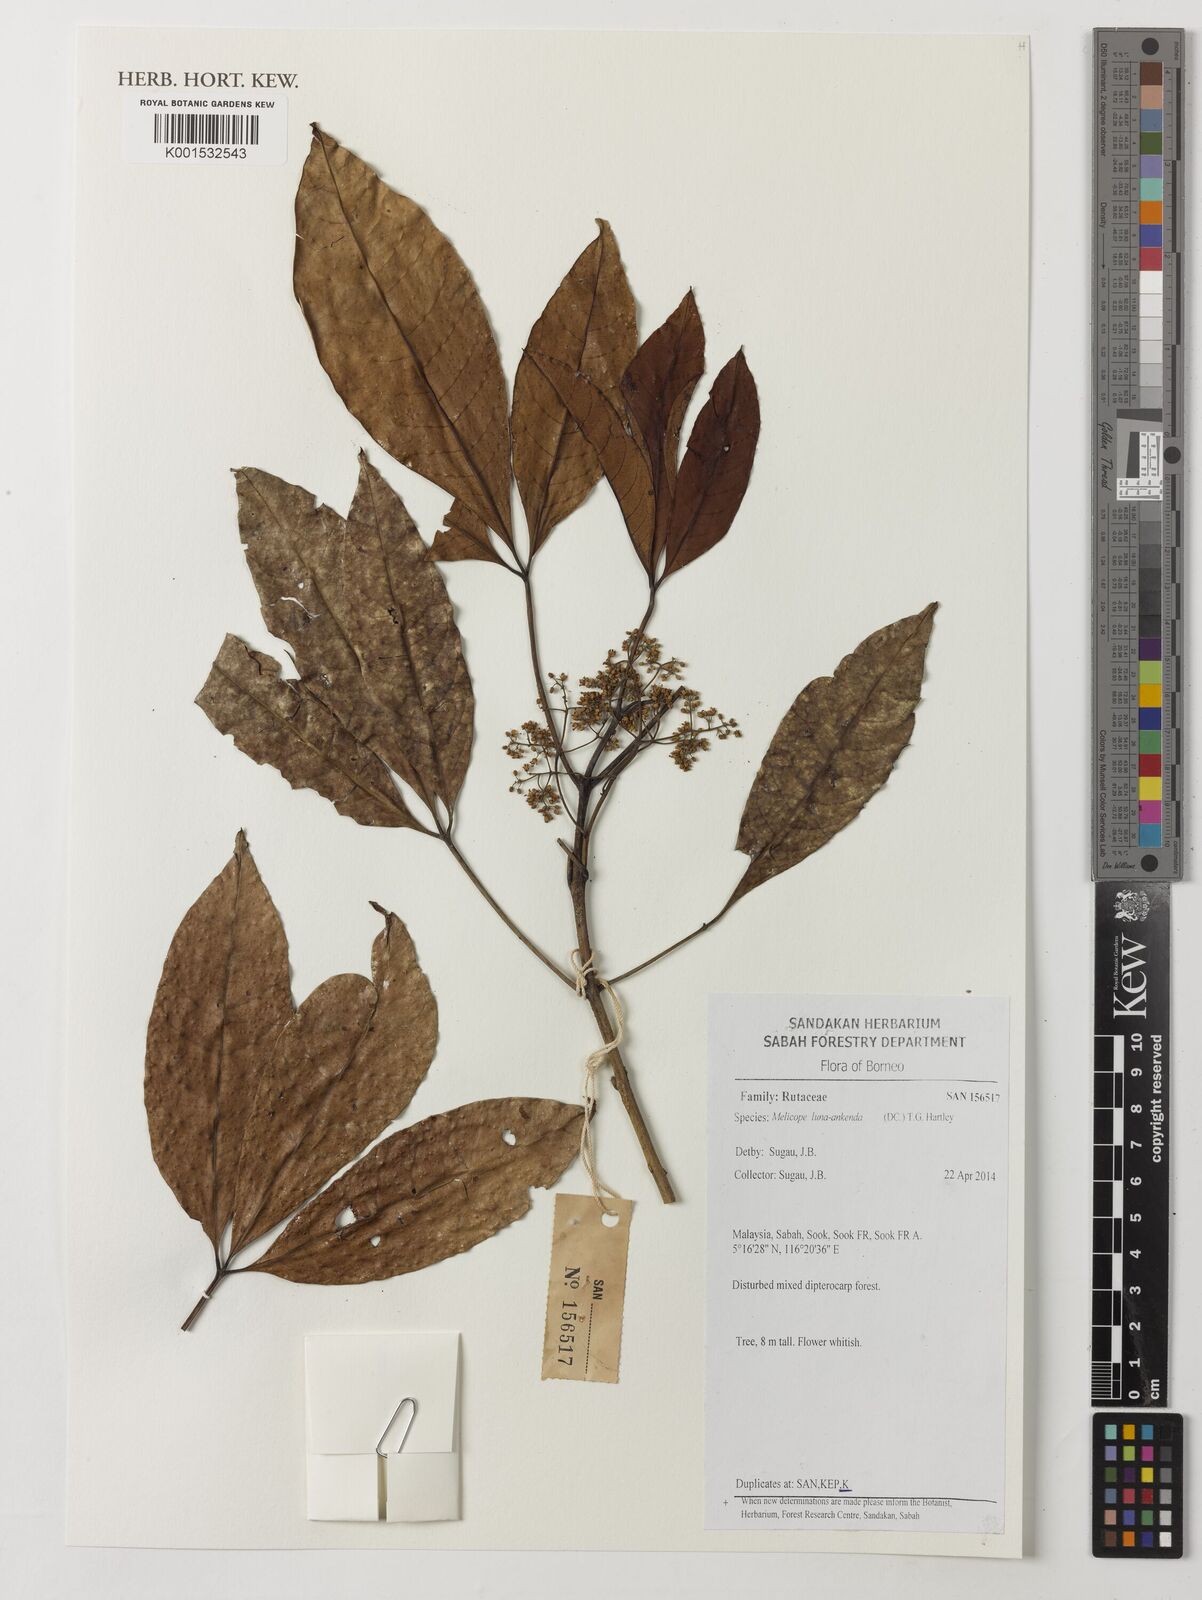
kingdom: Plantae
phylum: Tracheophyta
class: Magnoliopsida
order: Sapindales
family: Rutaceae
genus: Melicope
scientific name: Melicope lunu-ankenda
